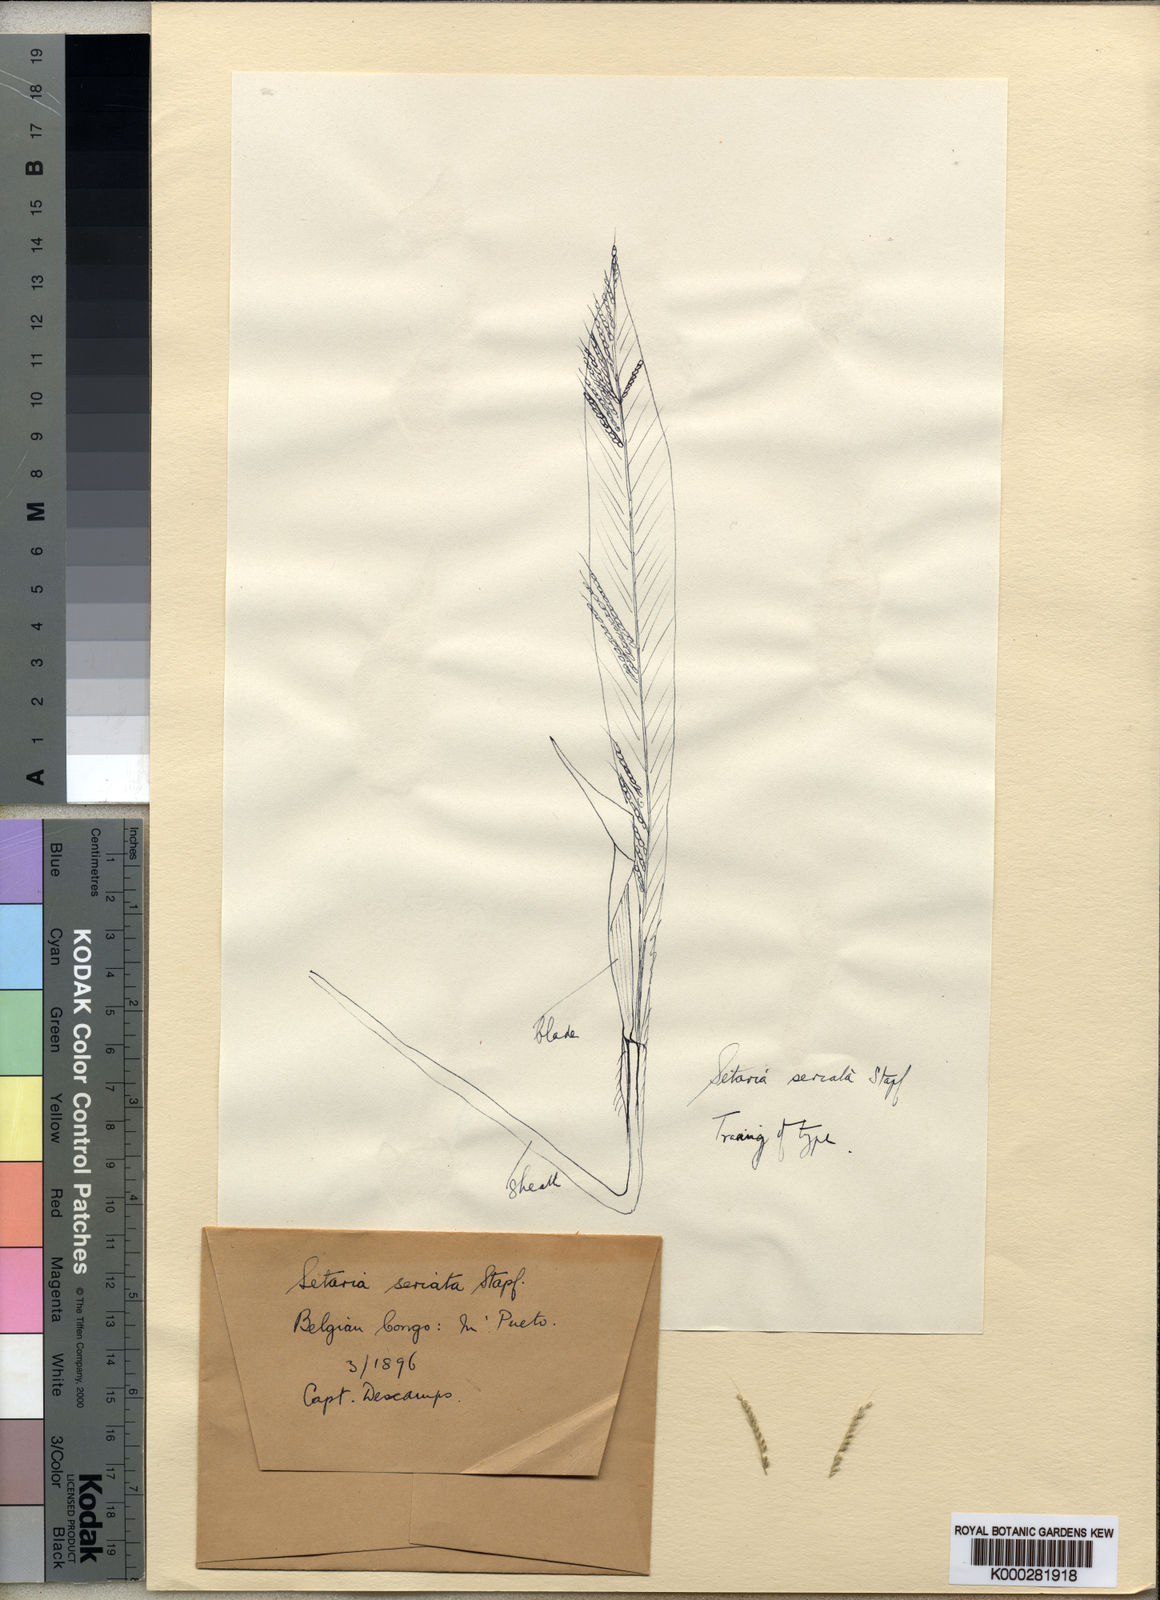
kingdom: Plantae
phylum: Tracheophyta
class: Liliopsida
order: Poales
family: Poaceae
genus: Setaria
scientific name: Setaria kagerensis
